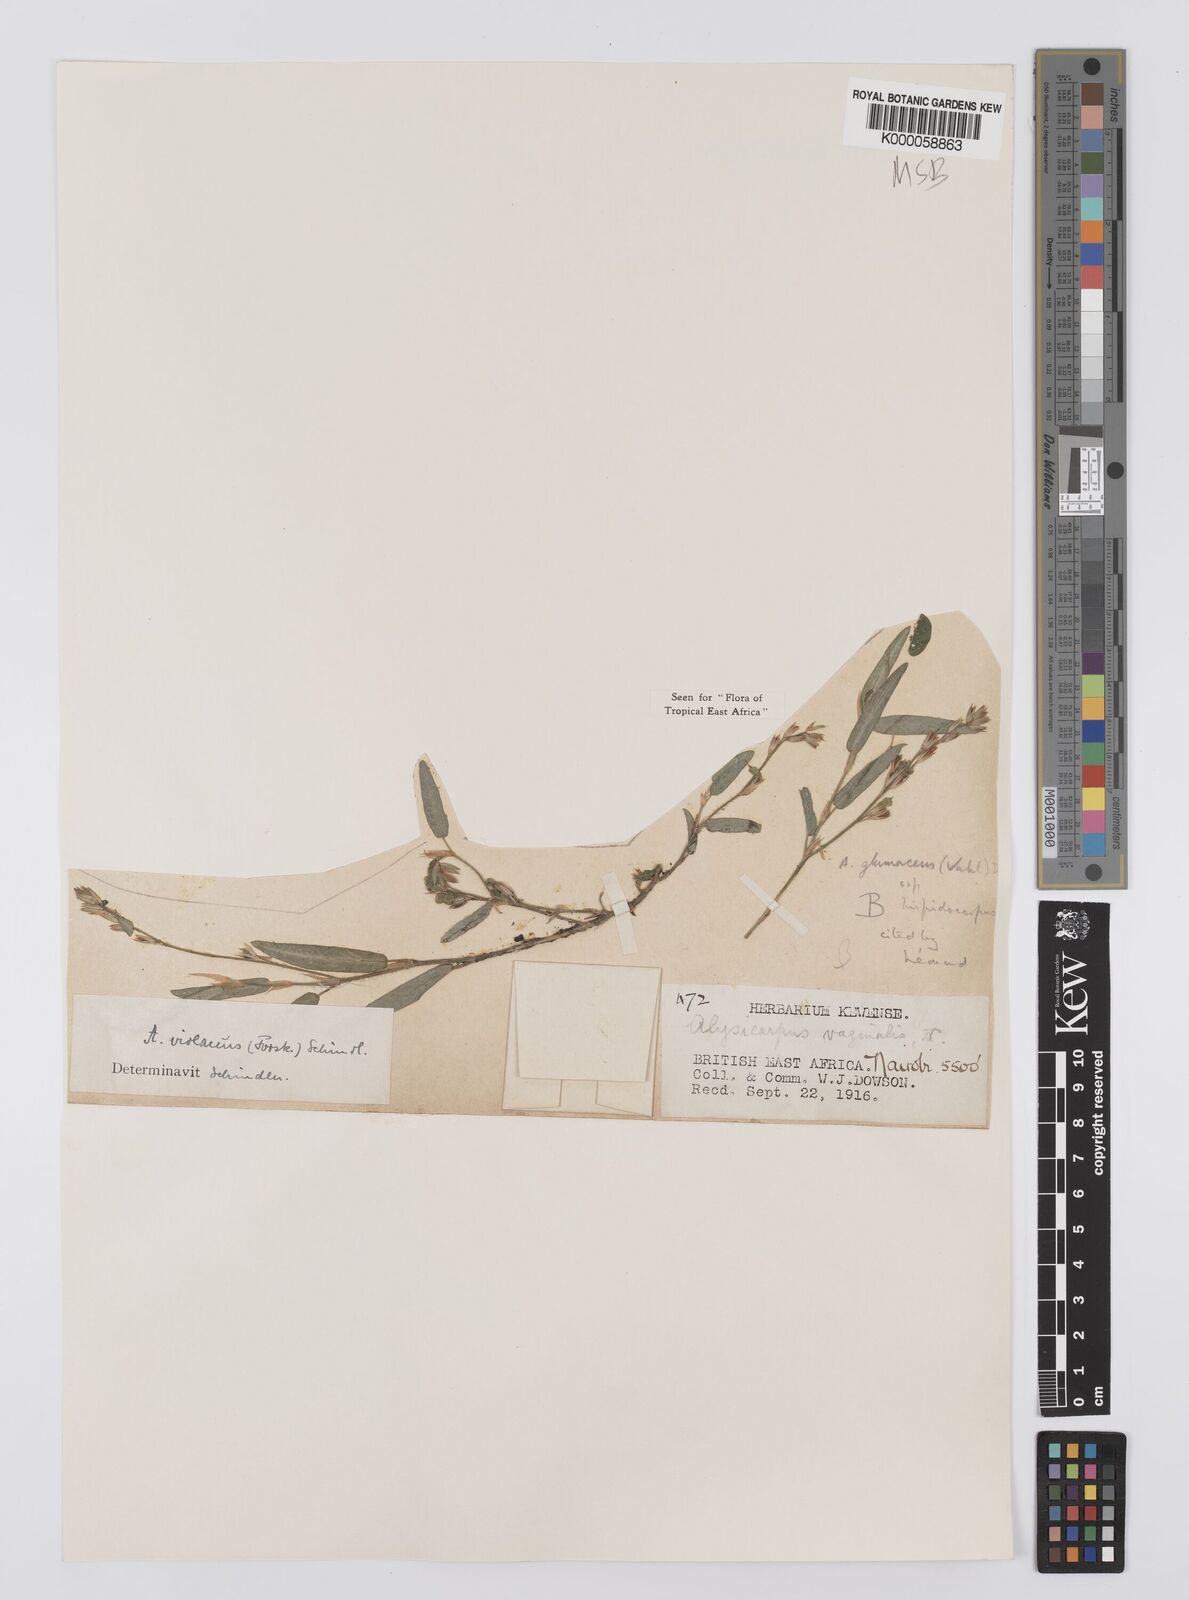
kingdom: Plantae
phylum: Tracheophyta
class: Magnoliopsida
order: Fabales
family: Fabaceae
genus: Alysicarpus
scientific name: Alysicarpus glumaceus
